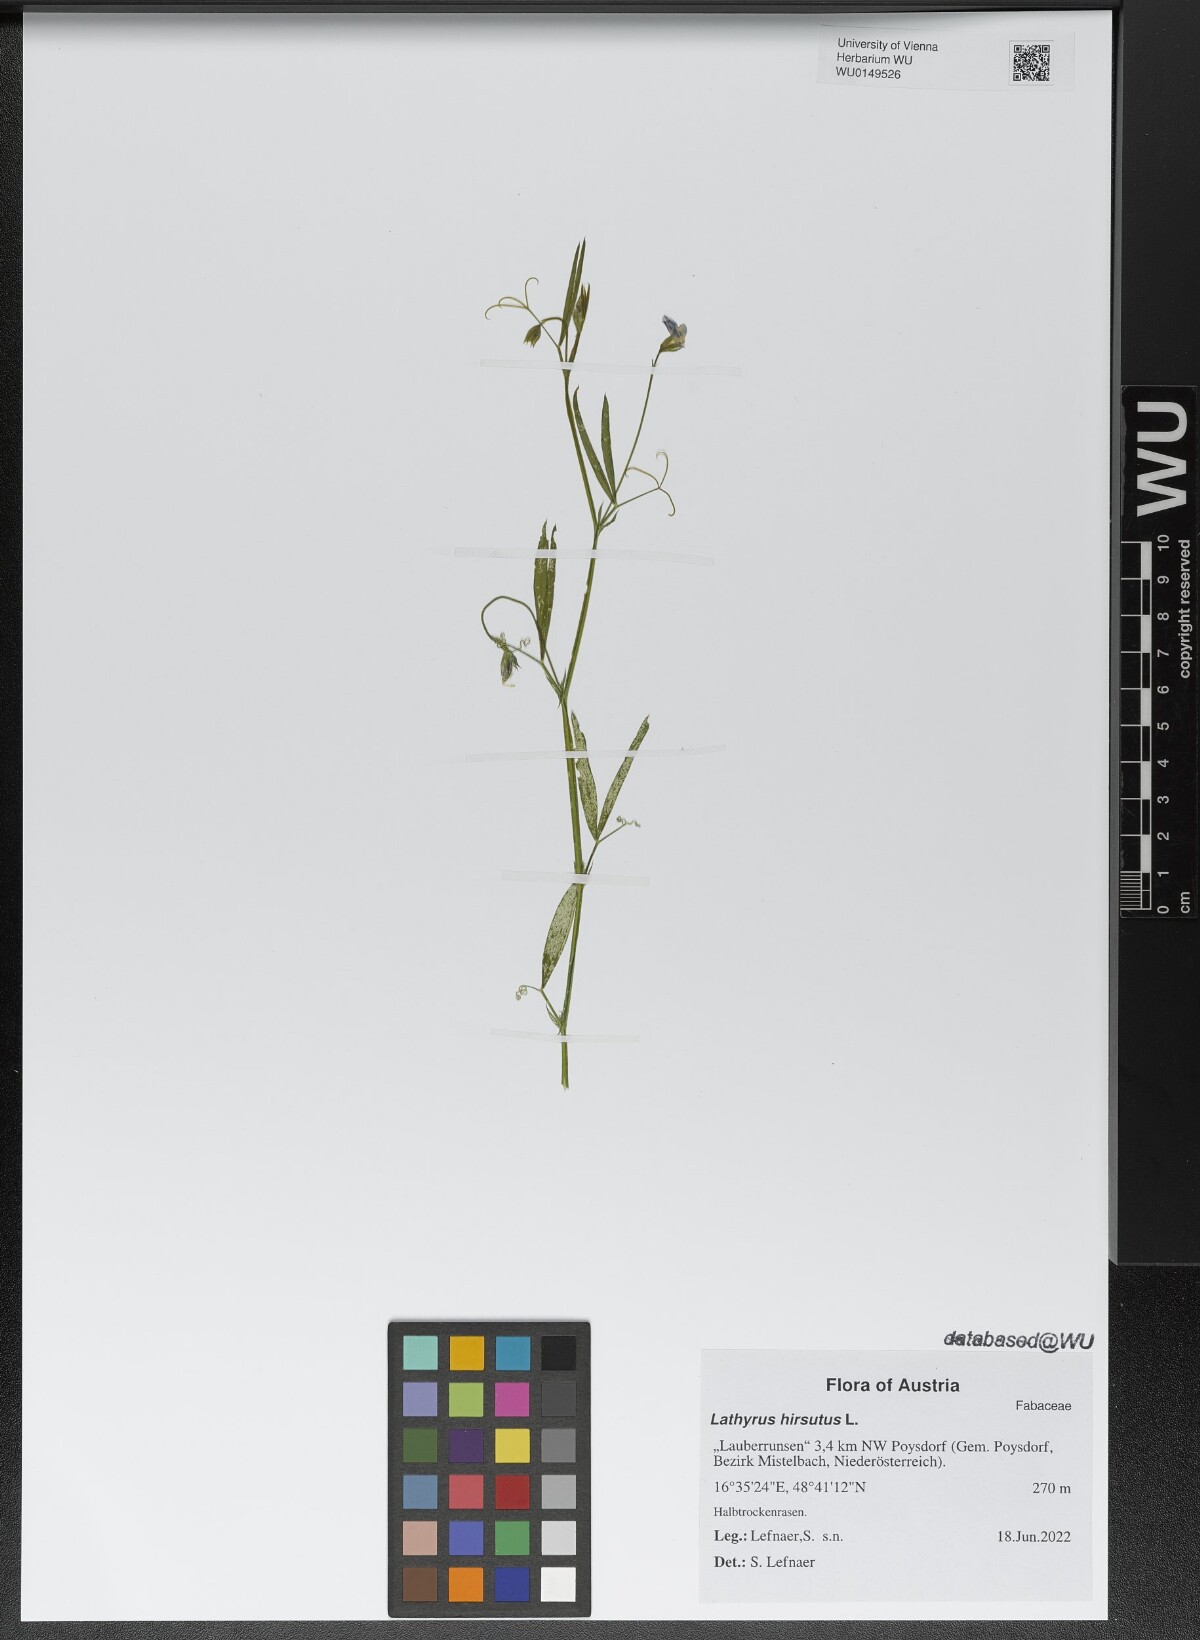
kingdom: Plantae
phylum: Tracheophyta
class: Magnoliopsida
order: Fabales
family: Fabaceae
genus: Lathyrus
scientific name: Lathyrus hirsutus
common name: Hairy vetchling
